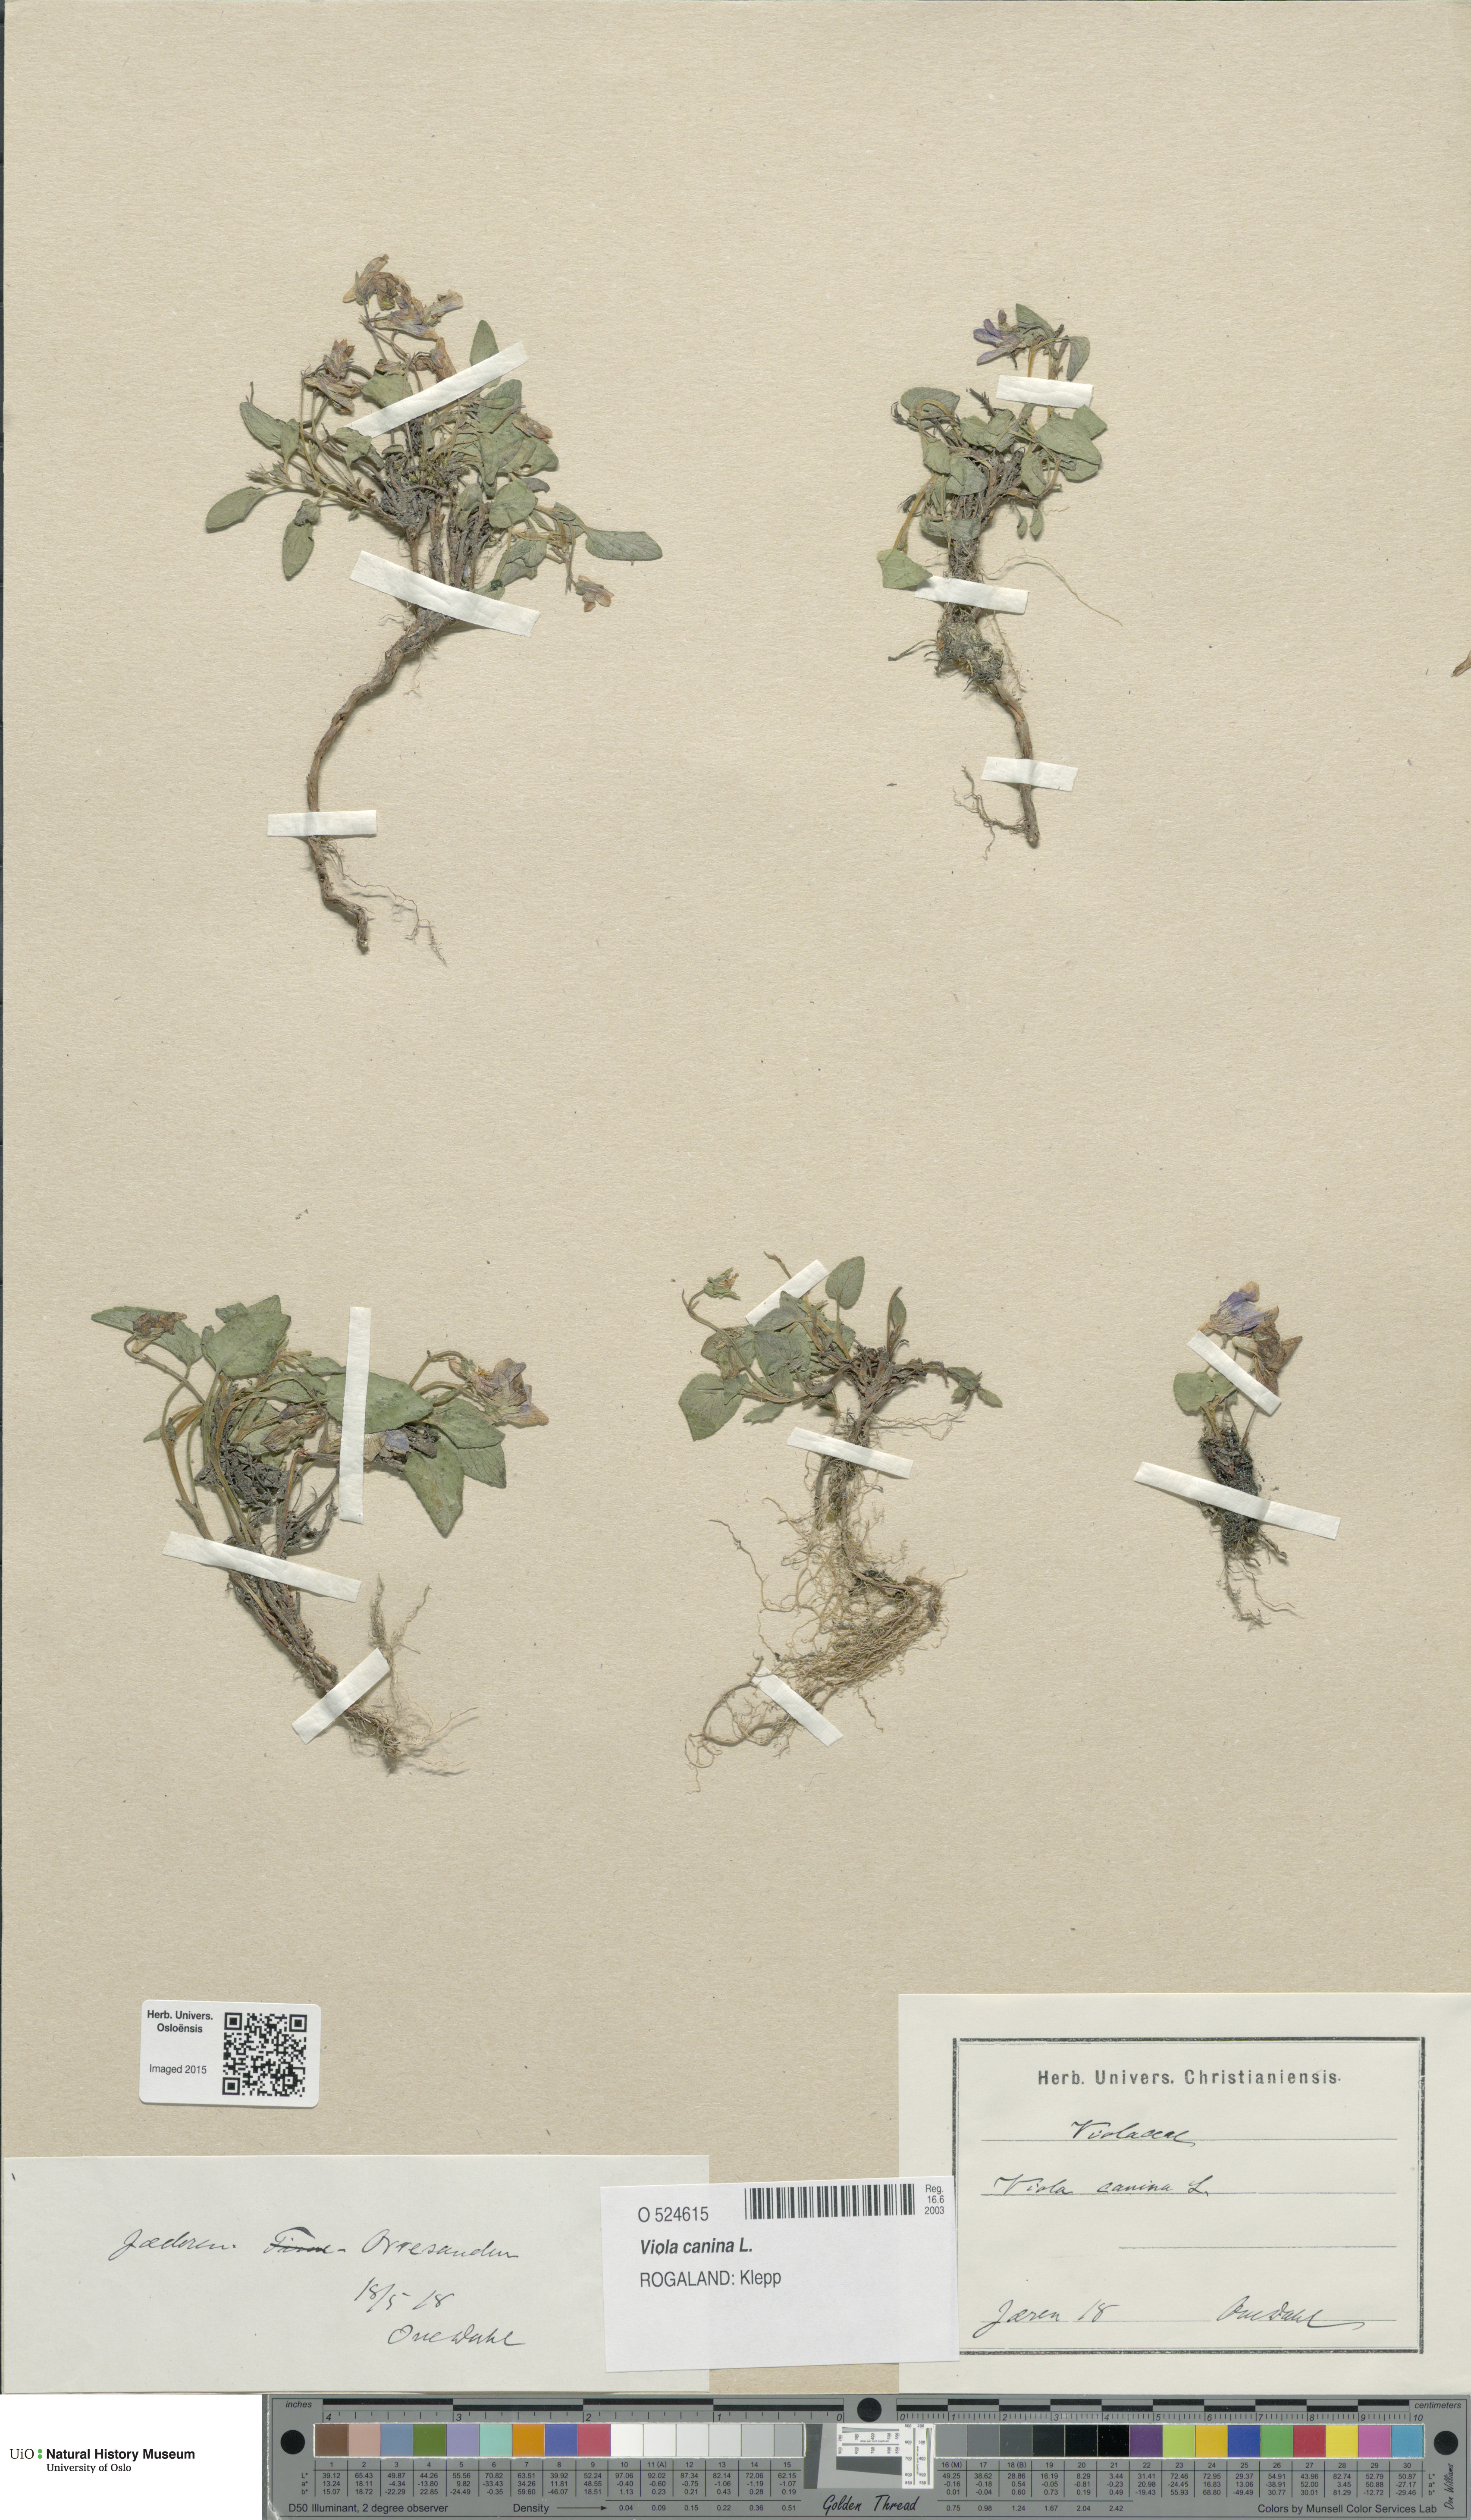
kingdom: Plantae
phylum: Tracheophyta
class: Magnoliopsida
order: Malpighiales
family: Violaceae
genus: Viola
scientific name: Viola canina
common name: Heath dog-violet
